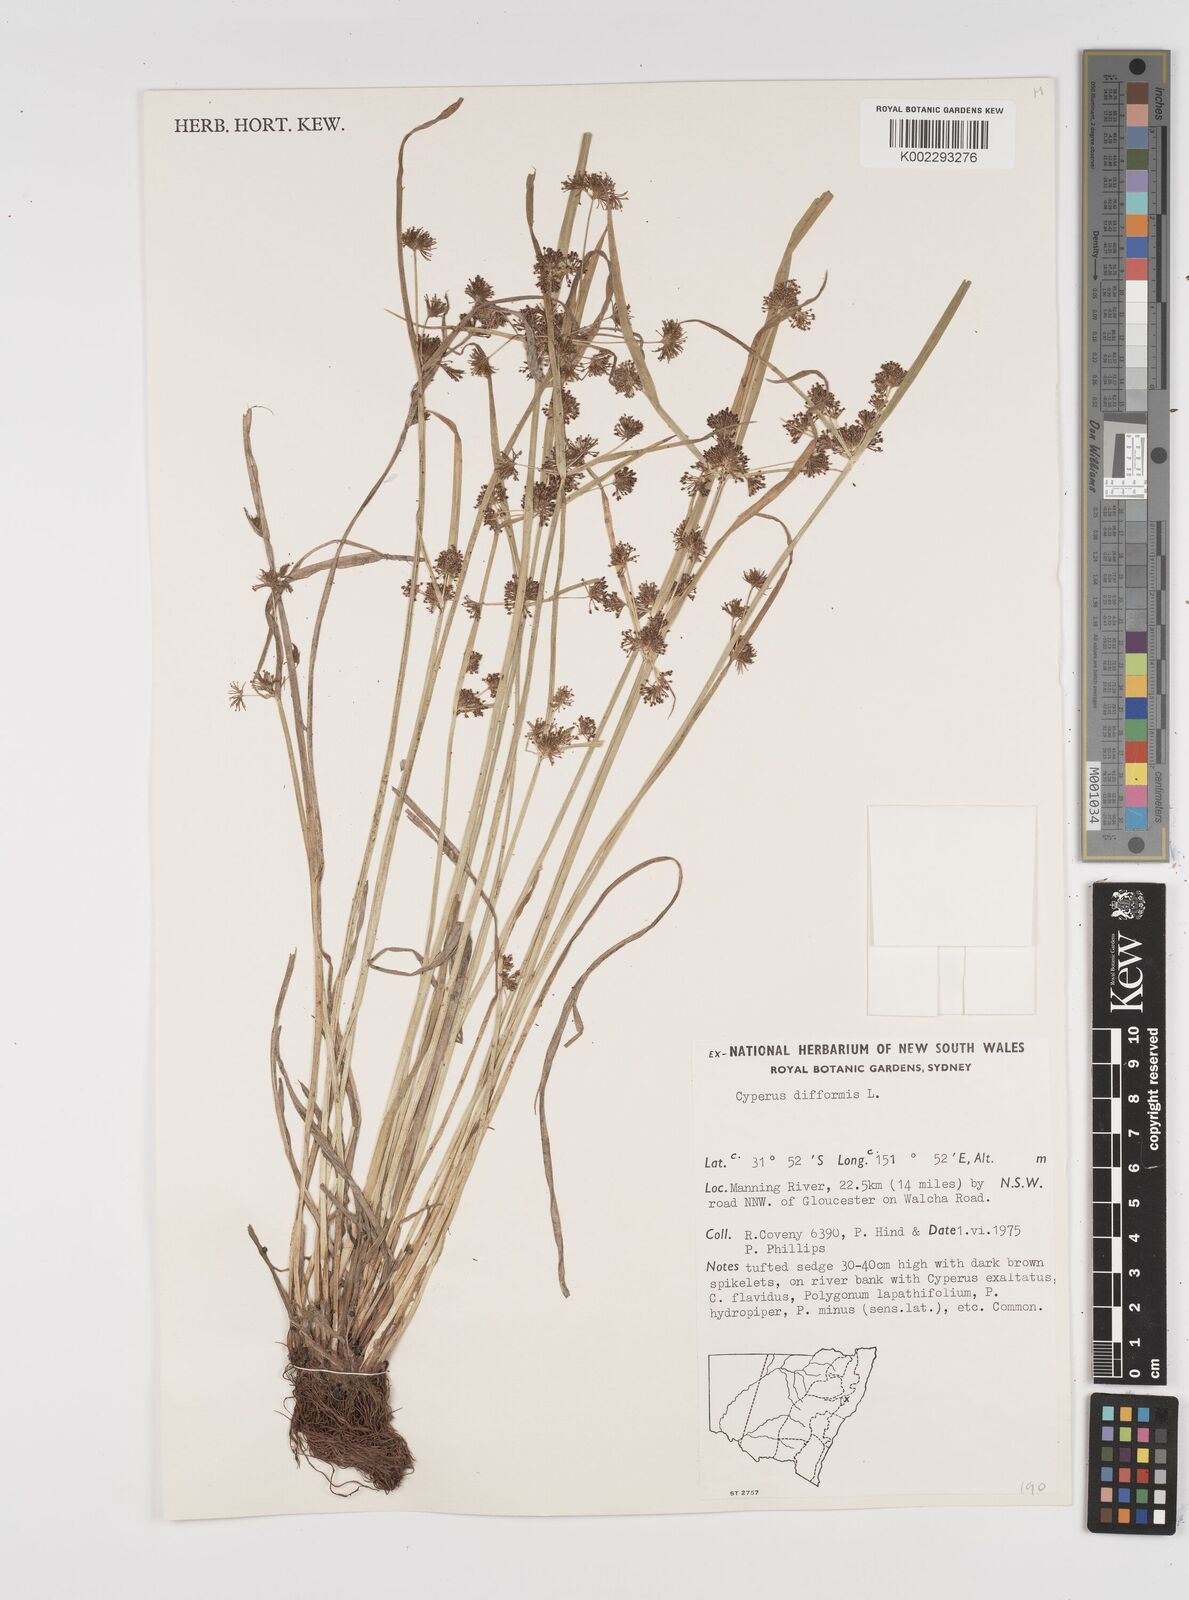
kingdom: Plantae
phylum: Tracheophyta
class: Liliopsida
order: Poales
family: Cyperaceae
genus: Cyperus
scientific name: Cyperus difformis
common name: Variable flatsedge
